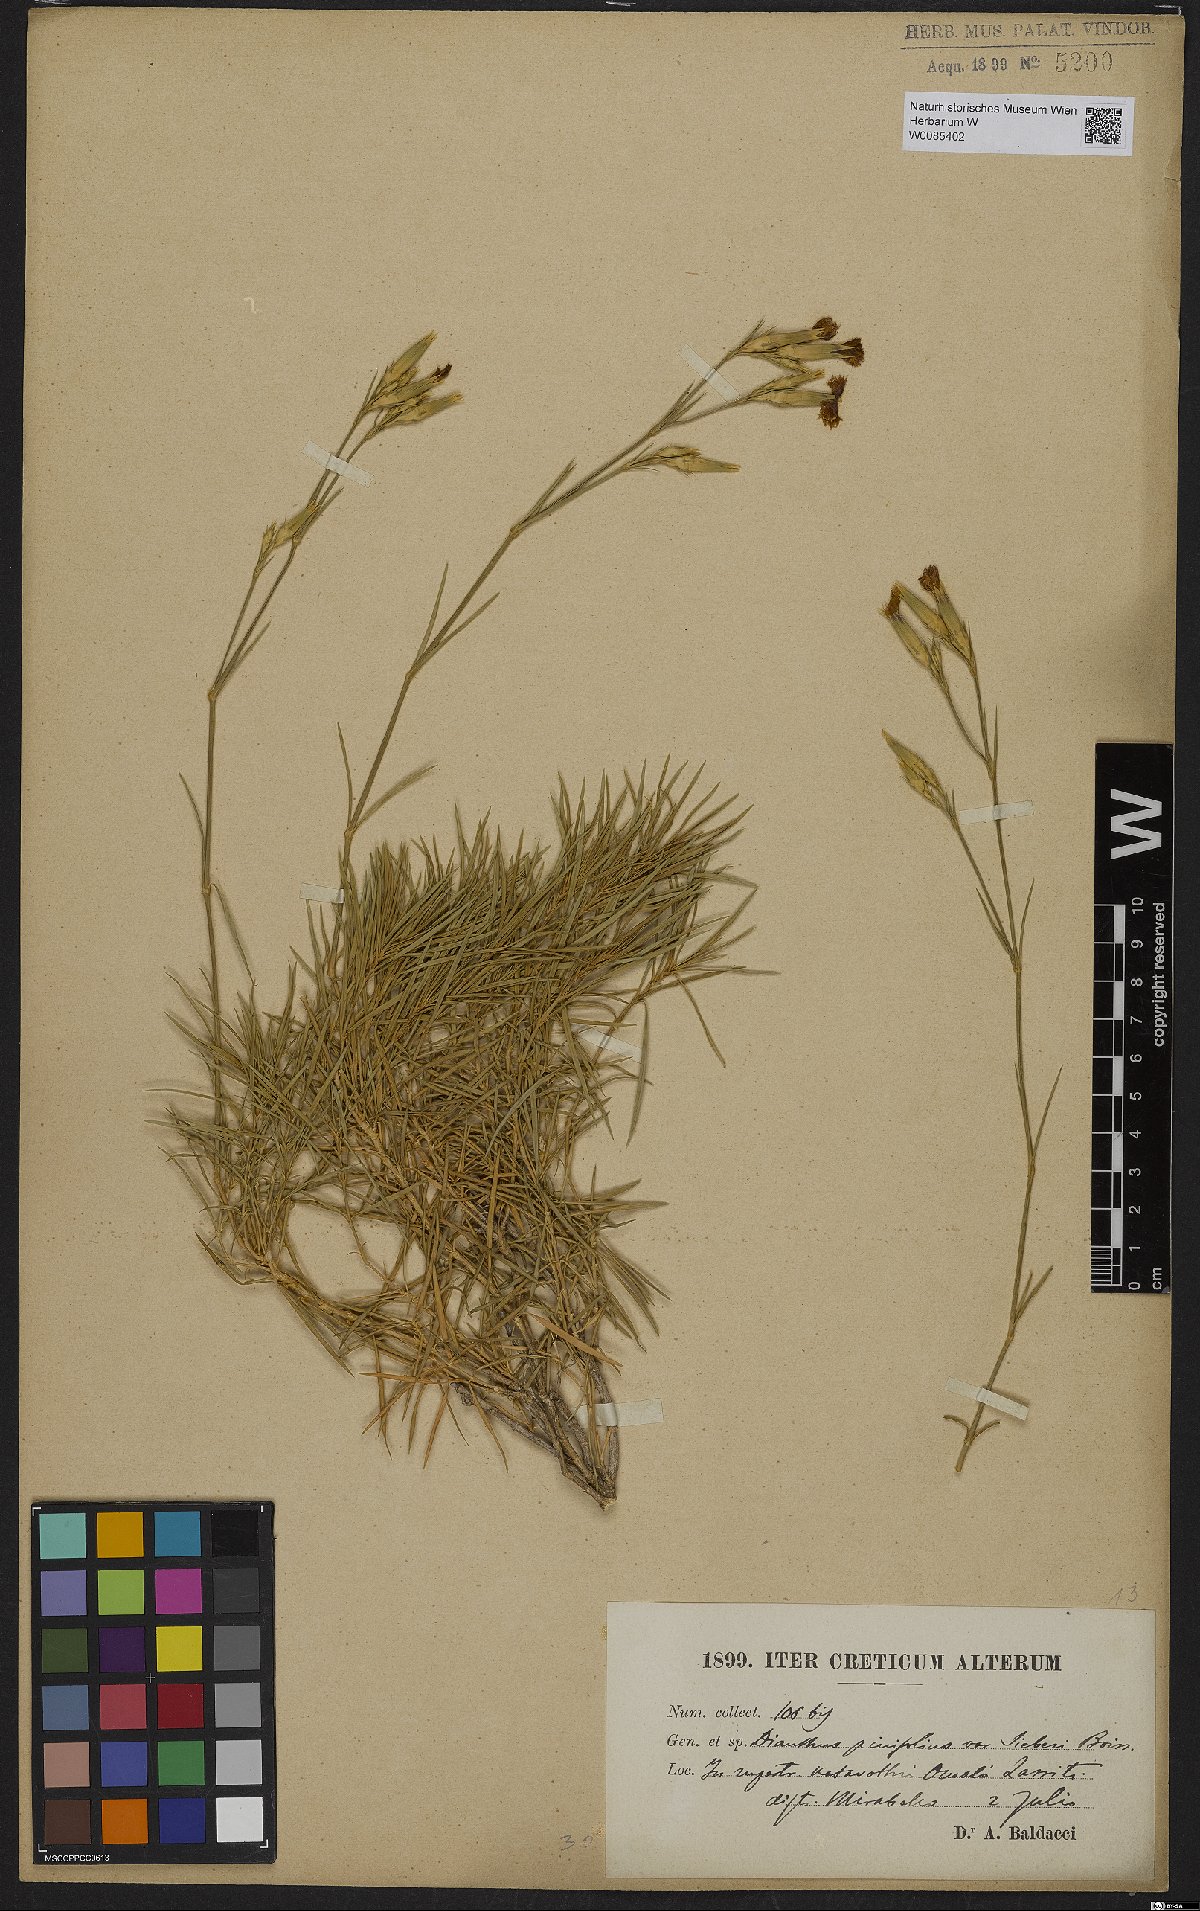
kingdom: Plantae
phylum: Tracheophyta
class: Magnoliopsida
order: Caryophyllales
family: Caryophyllaceae
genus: Dianthus
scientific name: Dianthus pinifolius
